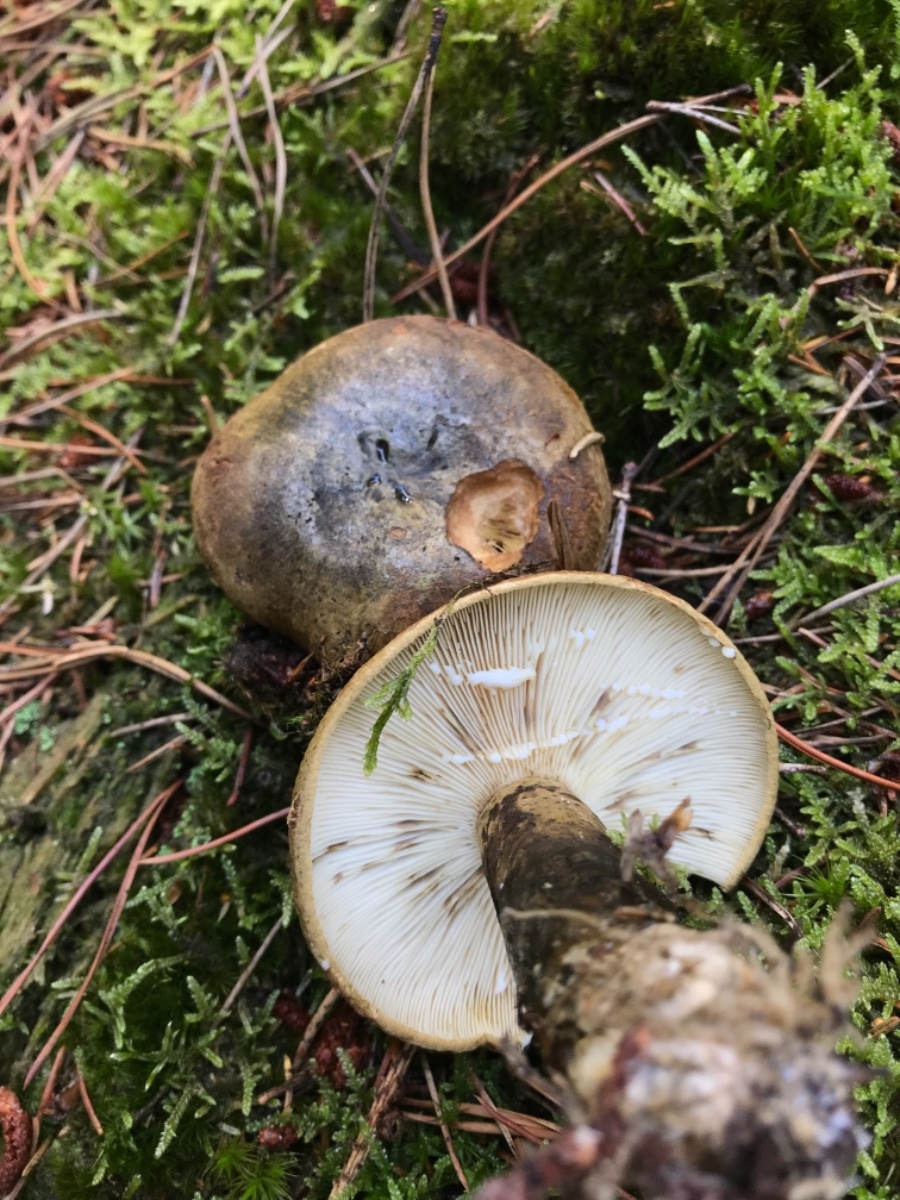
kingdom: Fungi
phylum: Basidiomycota
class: Agaricomycetes
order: Russulales
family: Russulaceae
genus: Lactarius
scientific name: Lactarius necator
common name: manddraber-mælkehat
